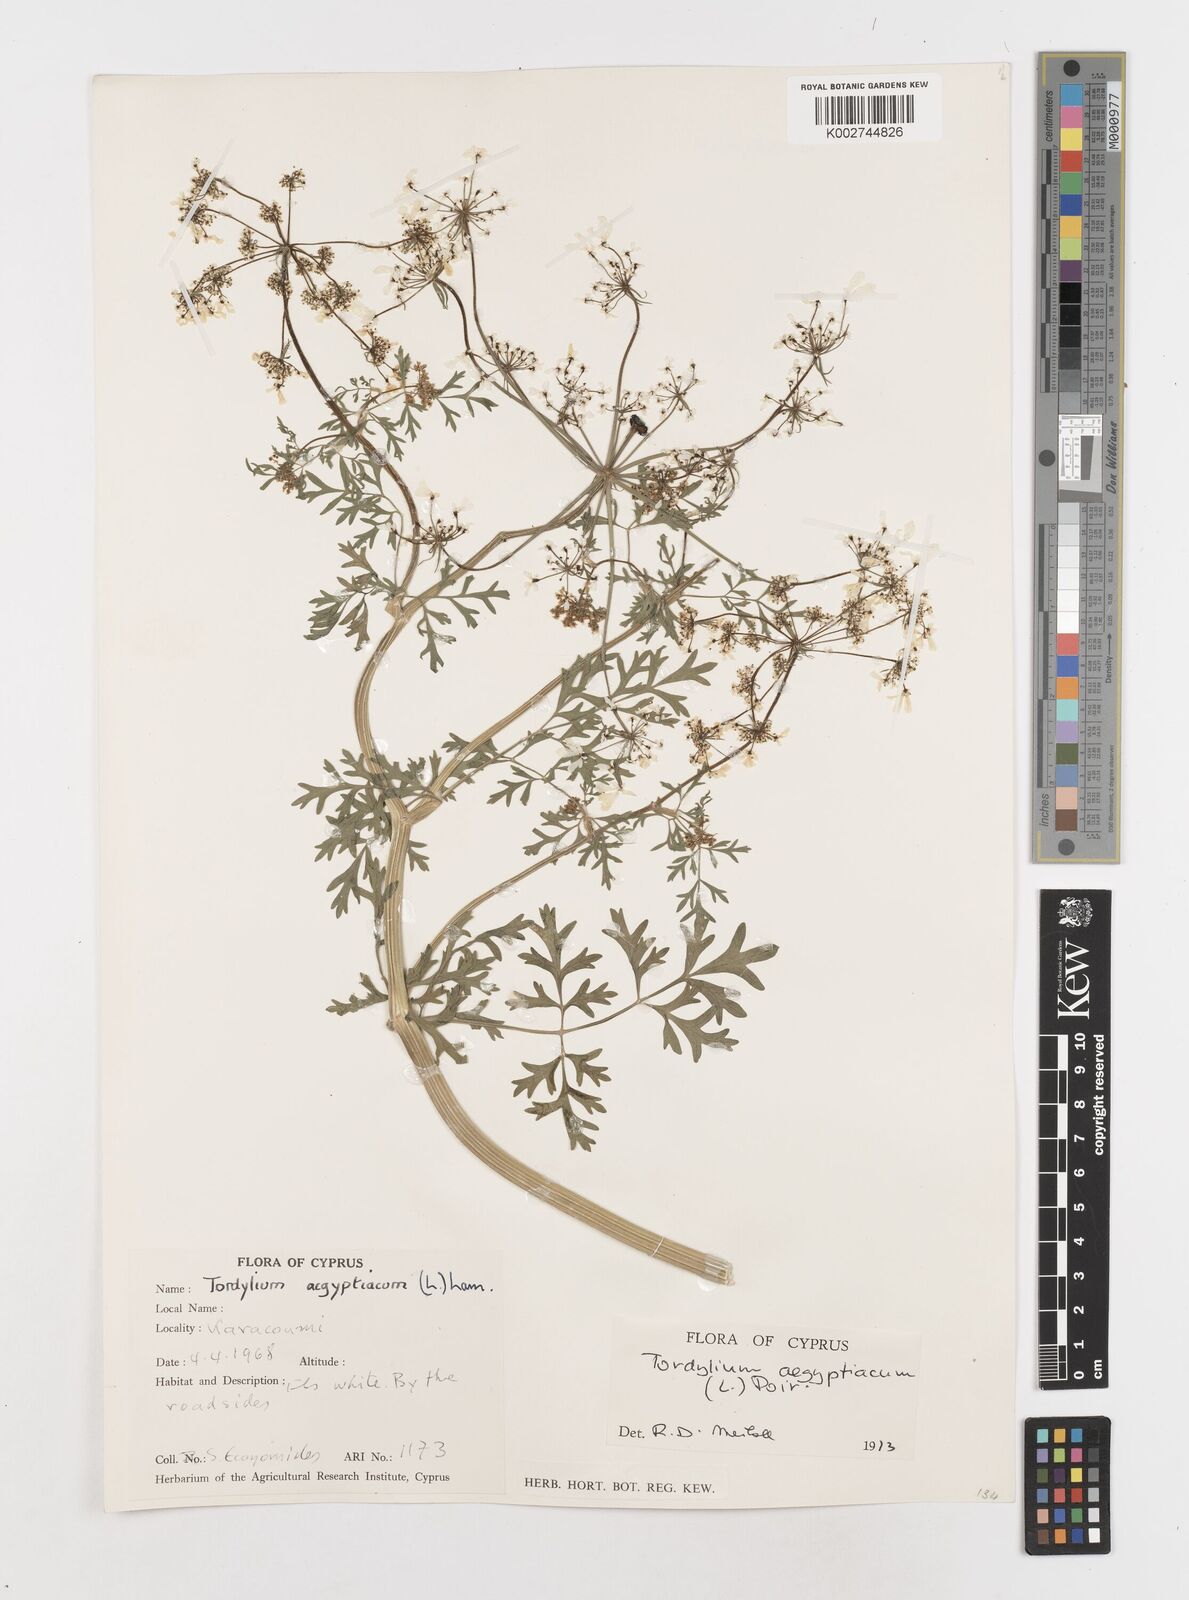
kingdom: Plantae
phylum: Tracheophyta
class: Magnoliopsida
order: Apiales
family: Apiaceae
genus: Tordylium
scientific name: Tordylium aegyptiacum
